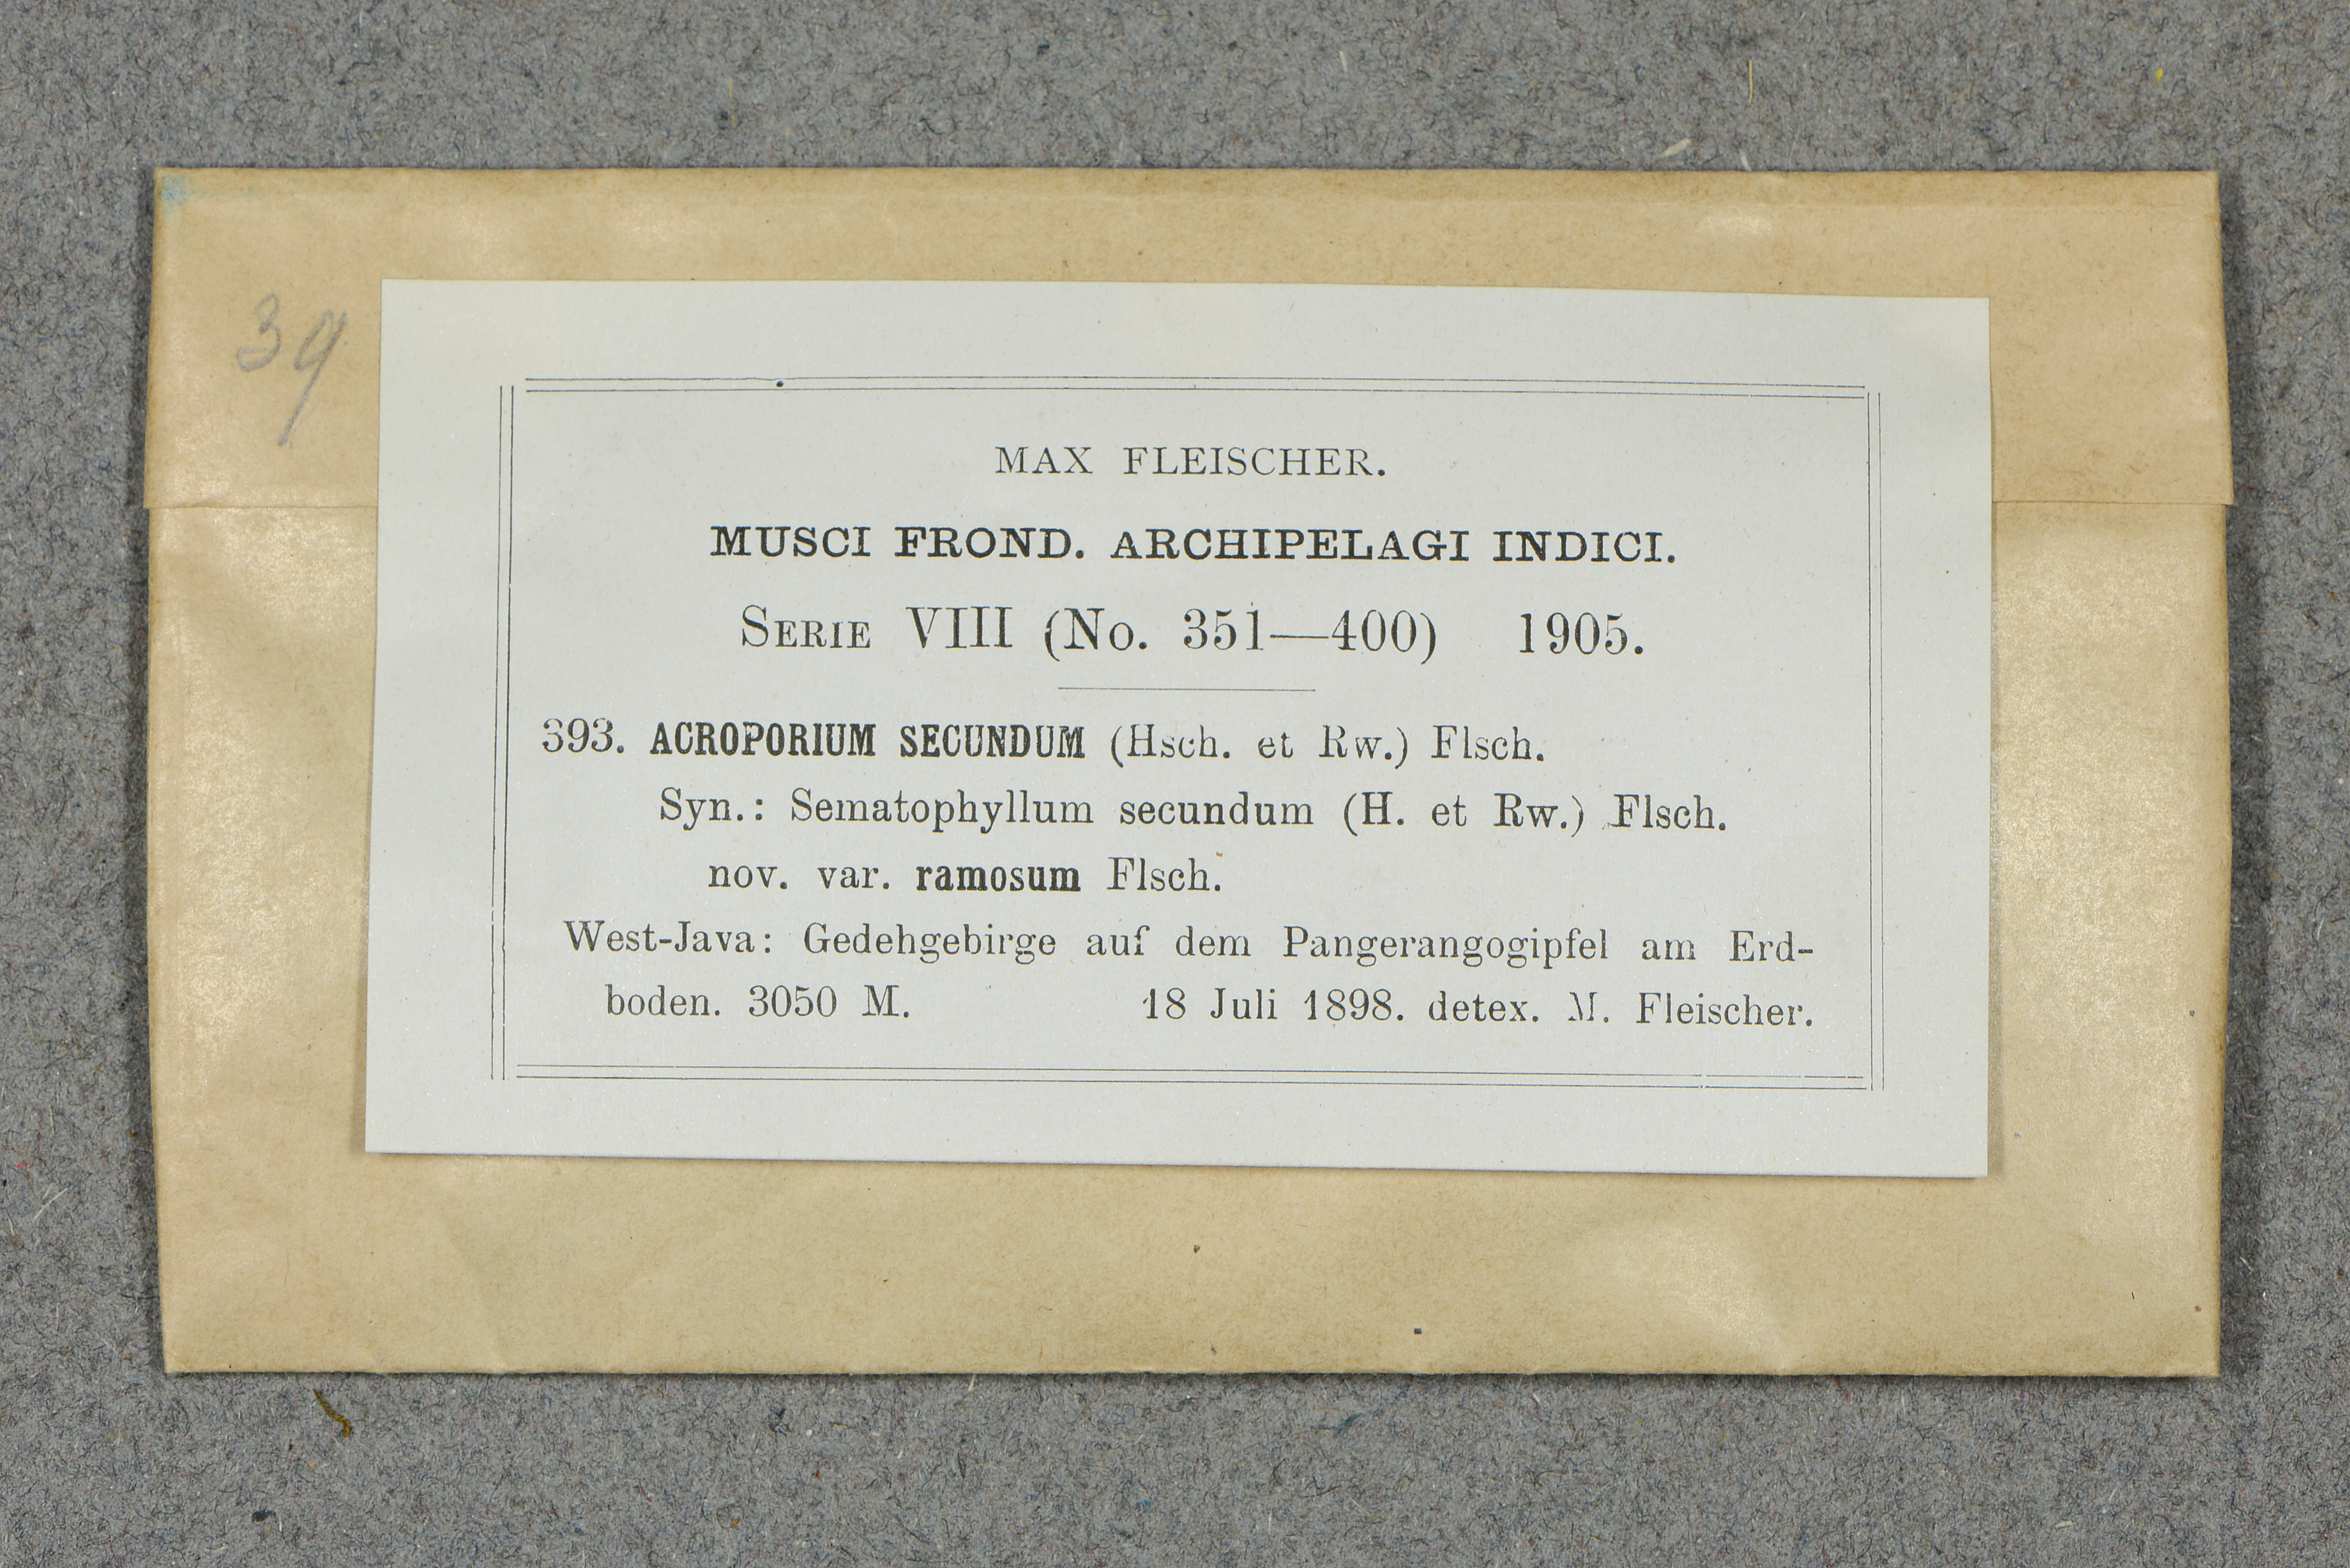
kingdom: Plantae
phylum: Bryophyta
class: Bryopsida
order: Hypnales
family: Sematophyllaceae
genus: Acroporium
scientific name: Acroporium strepsiphyllum
